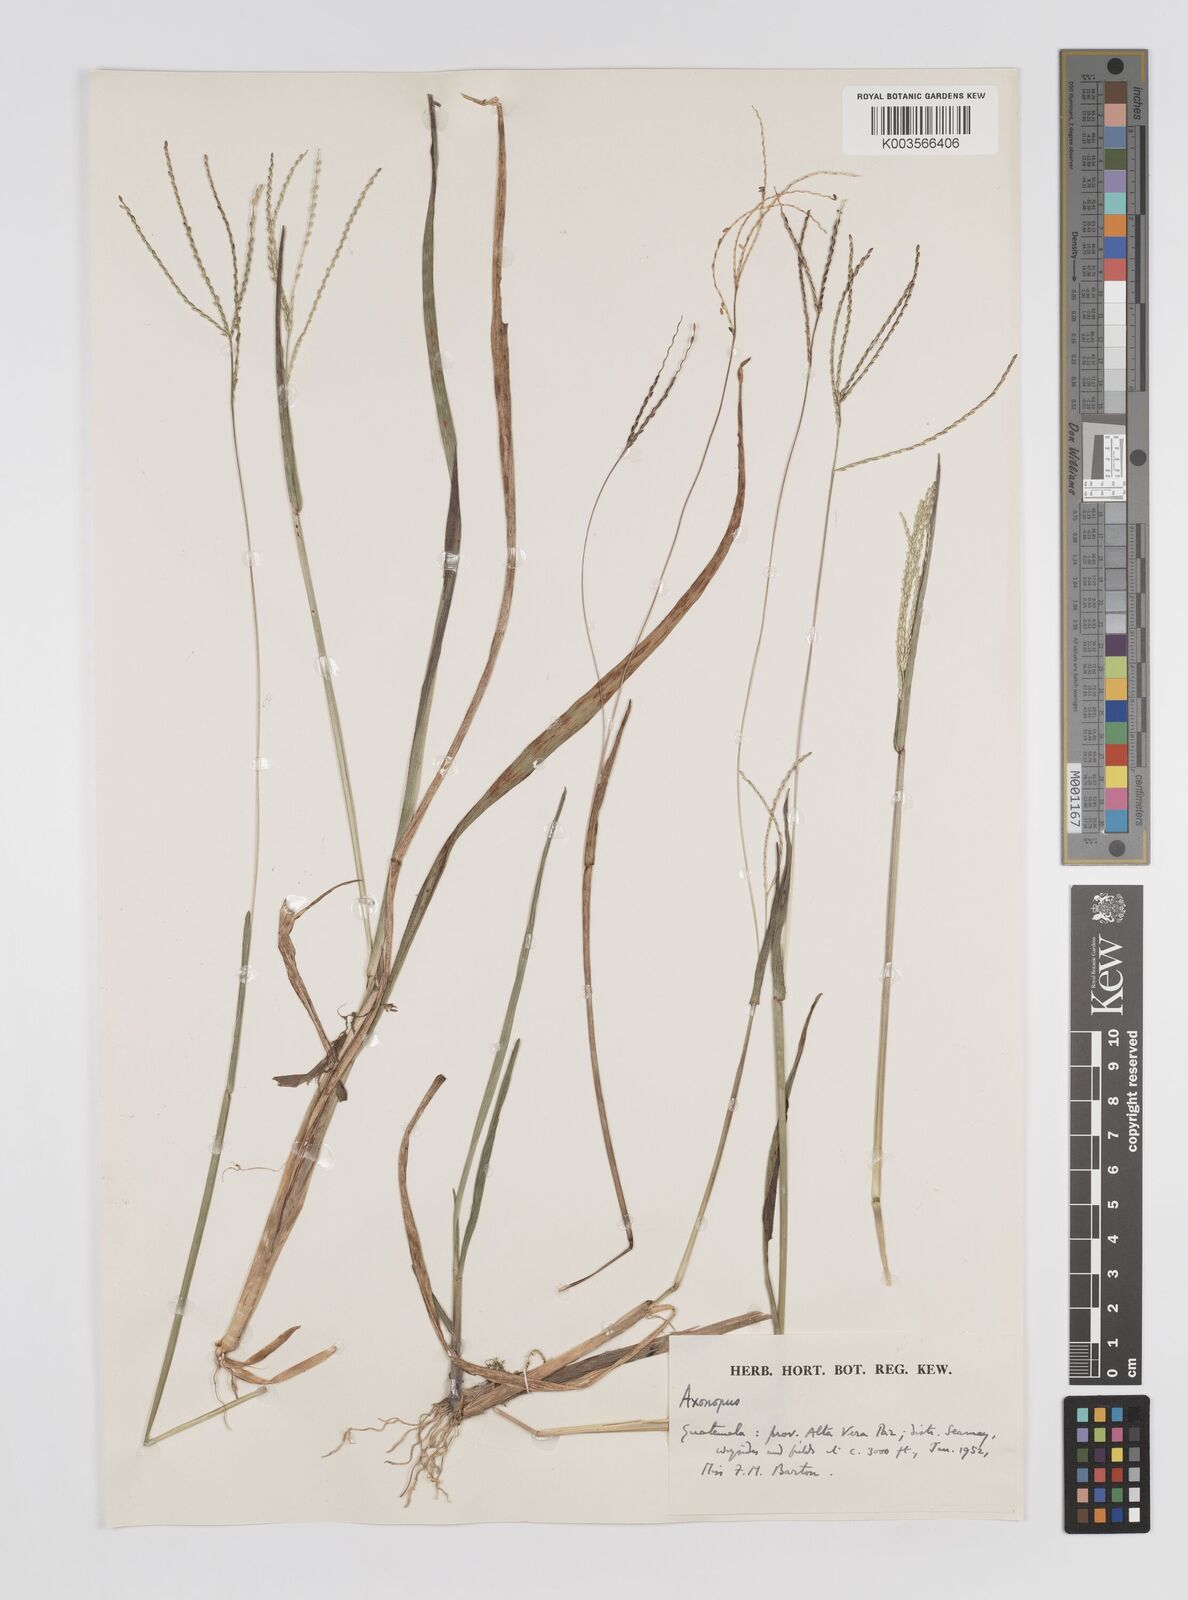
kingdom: Plantae
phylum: Tracheophyta
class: Liliopsida
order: Poales
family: Poaceae
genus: Axonopus
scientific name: Axonopus
